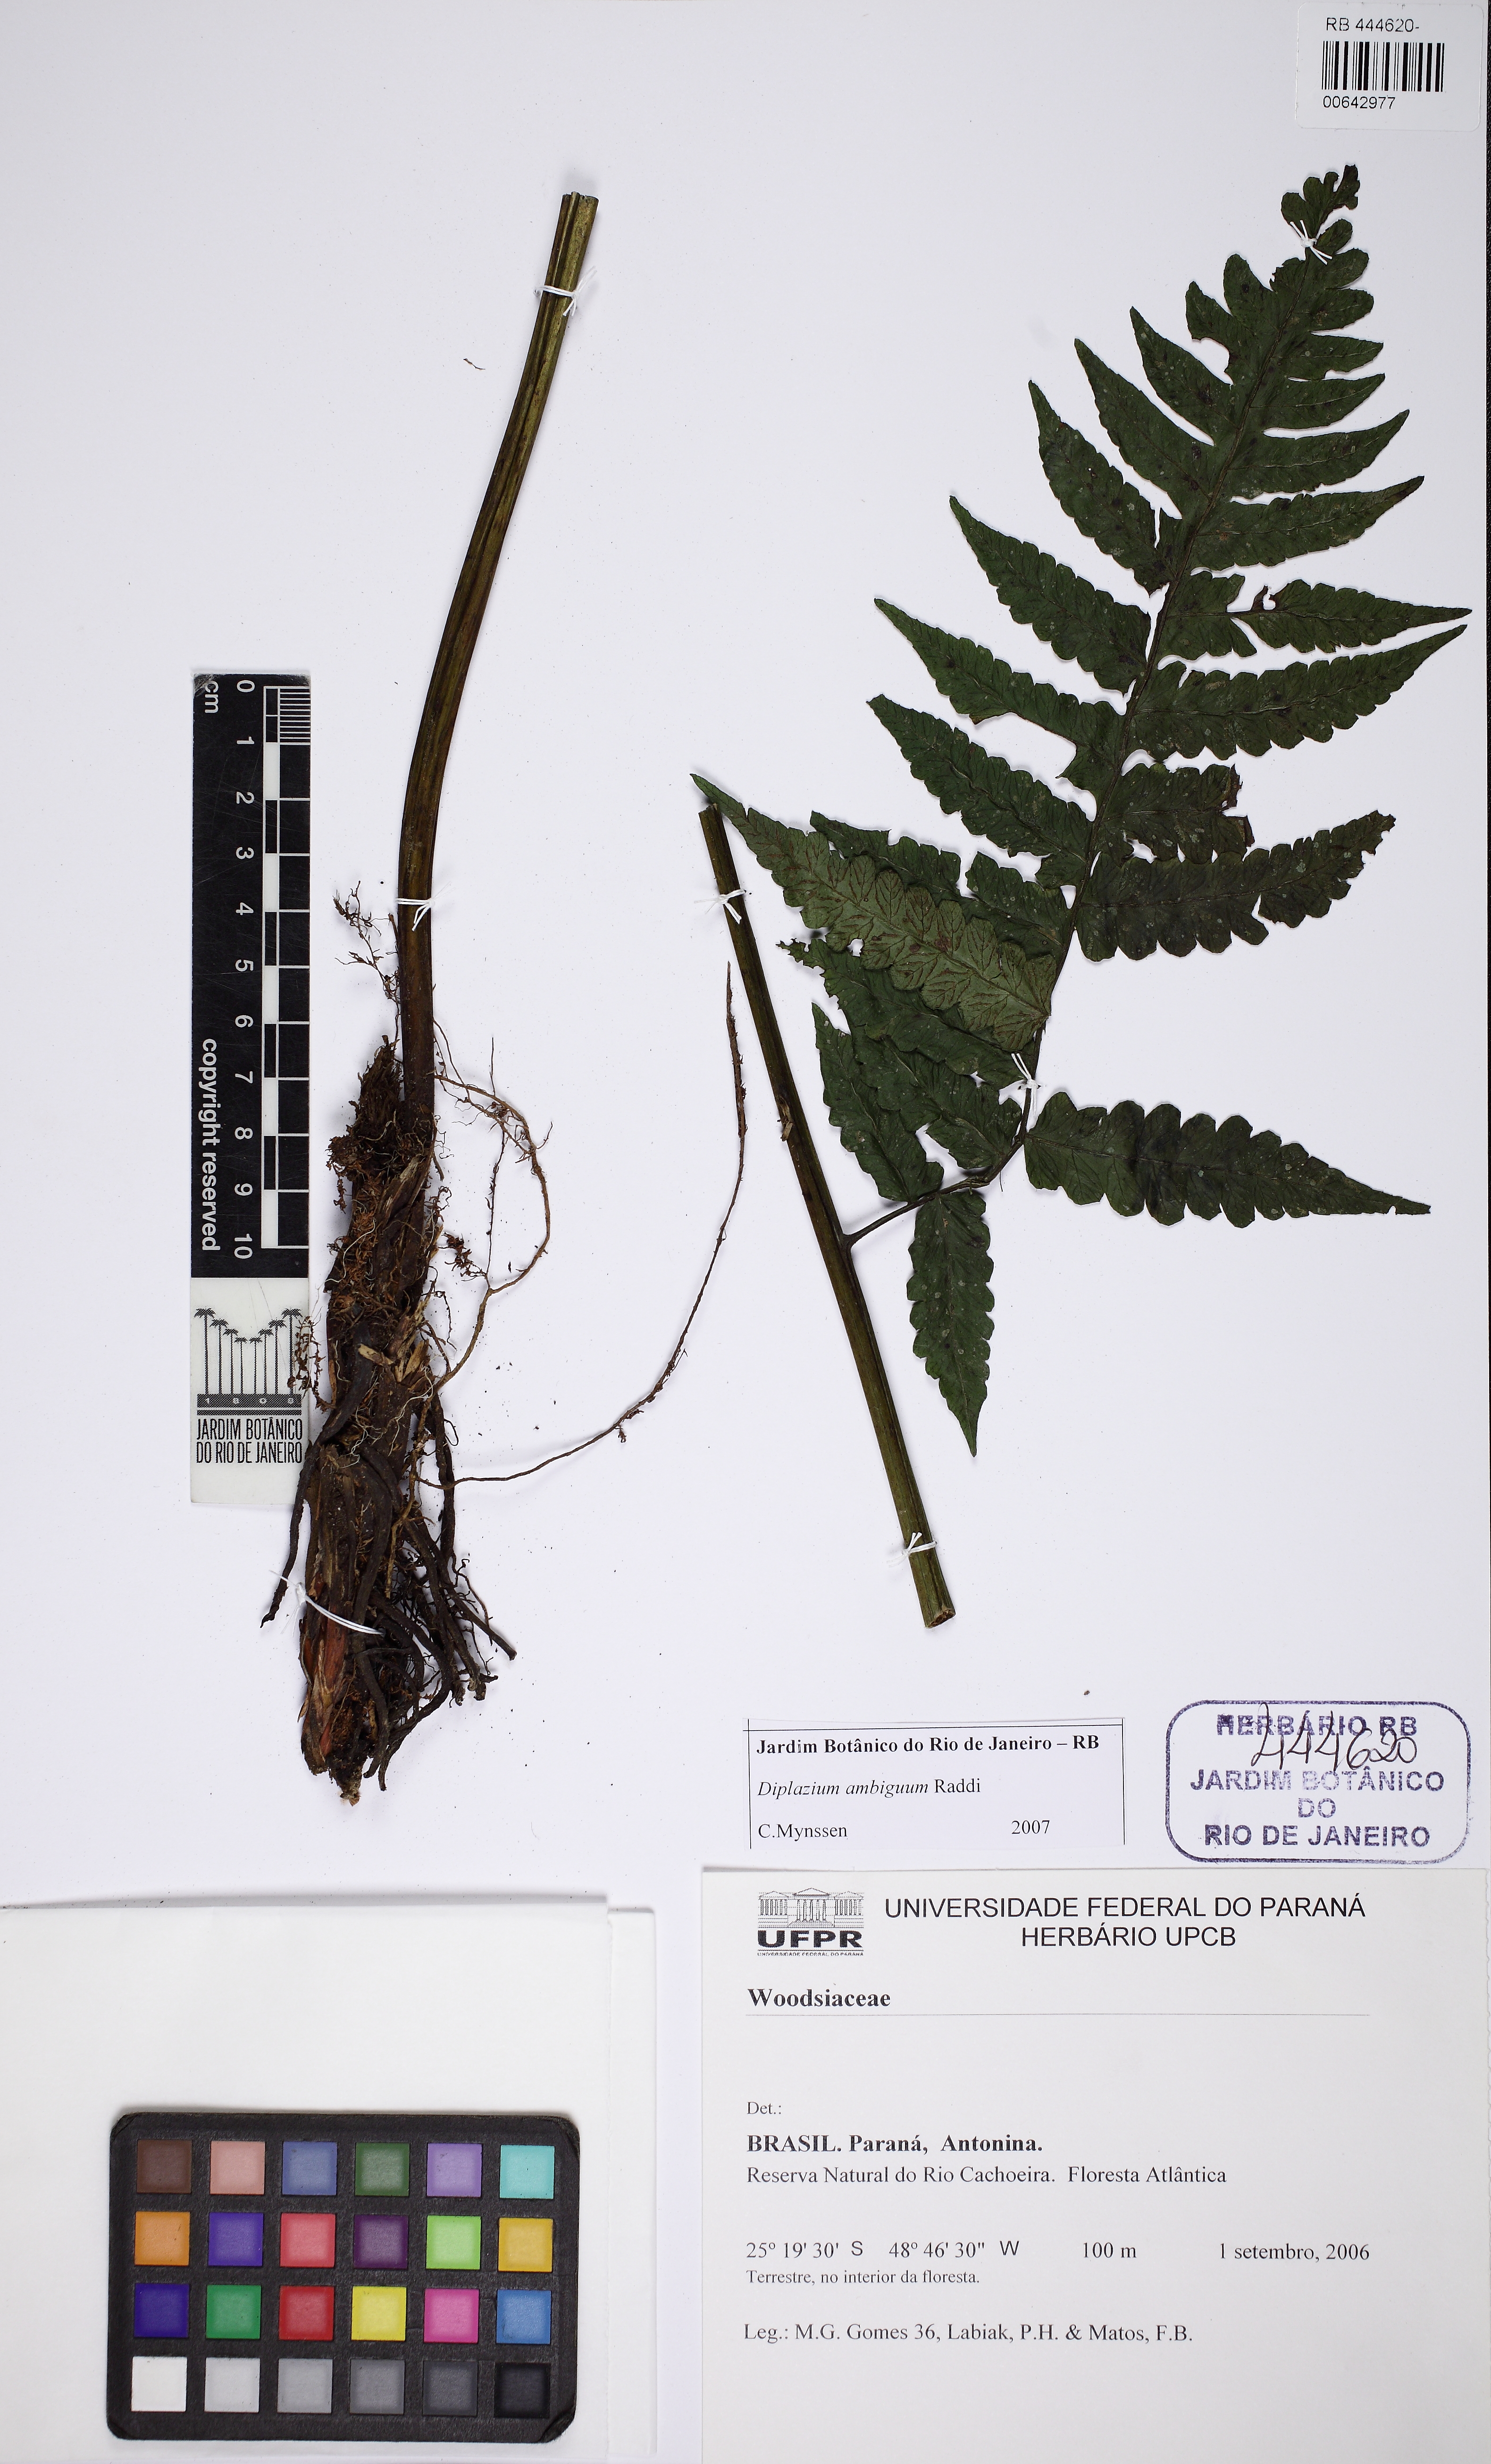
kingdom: Plantae
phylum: Tracheophyta
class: Polypodiopsida
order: Polypodiales
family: Athyriaceae
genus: Diplazium
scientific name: Diplazium ambiguum
